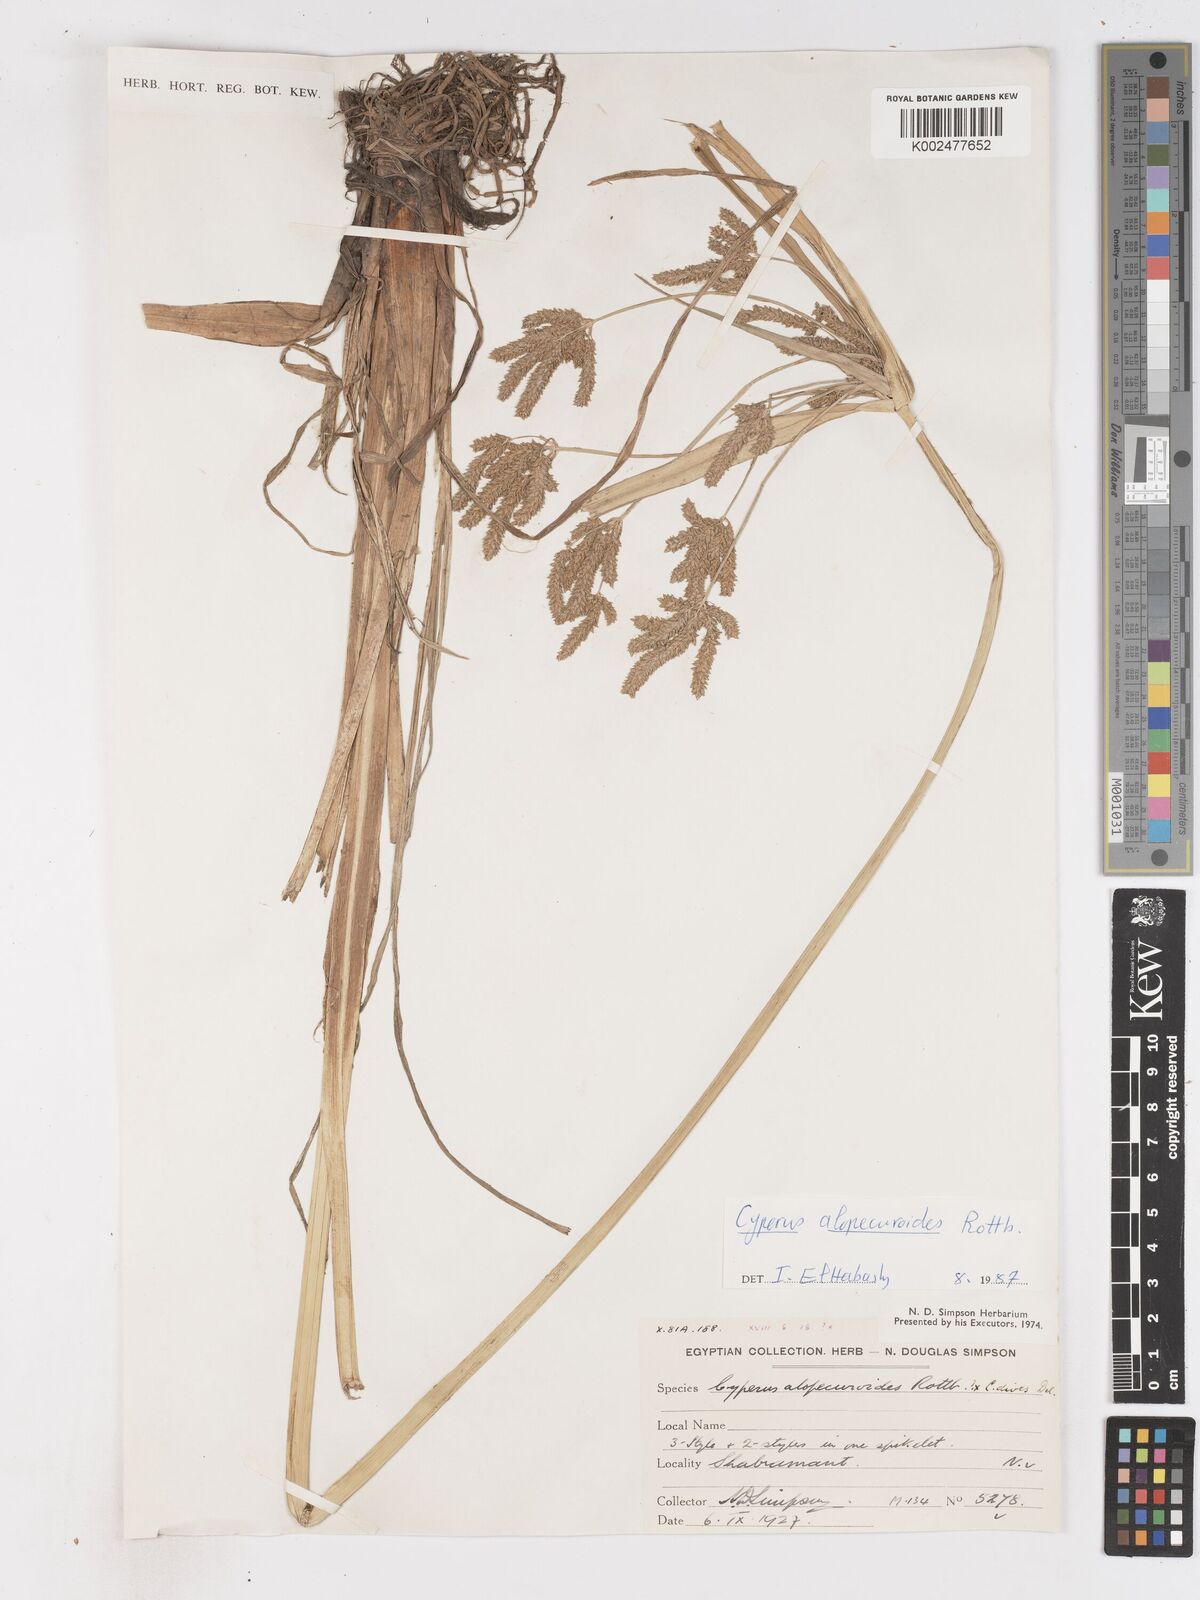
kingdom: Plantae
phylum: Tracheophyta
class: Liliopsida
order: Poales
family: Cyperaceae
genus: Cyperus
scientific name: Cyperus alopecuroides
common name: Foxtail flatsedge
